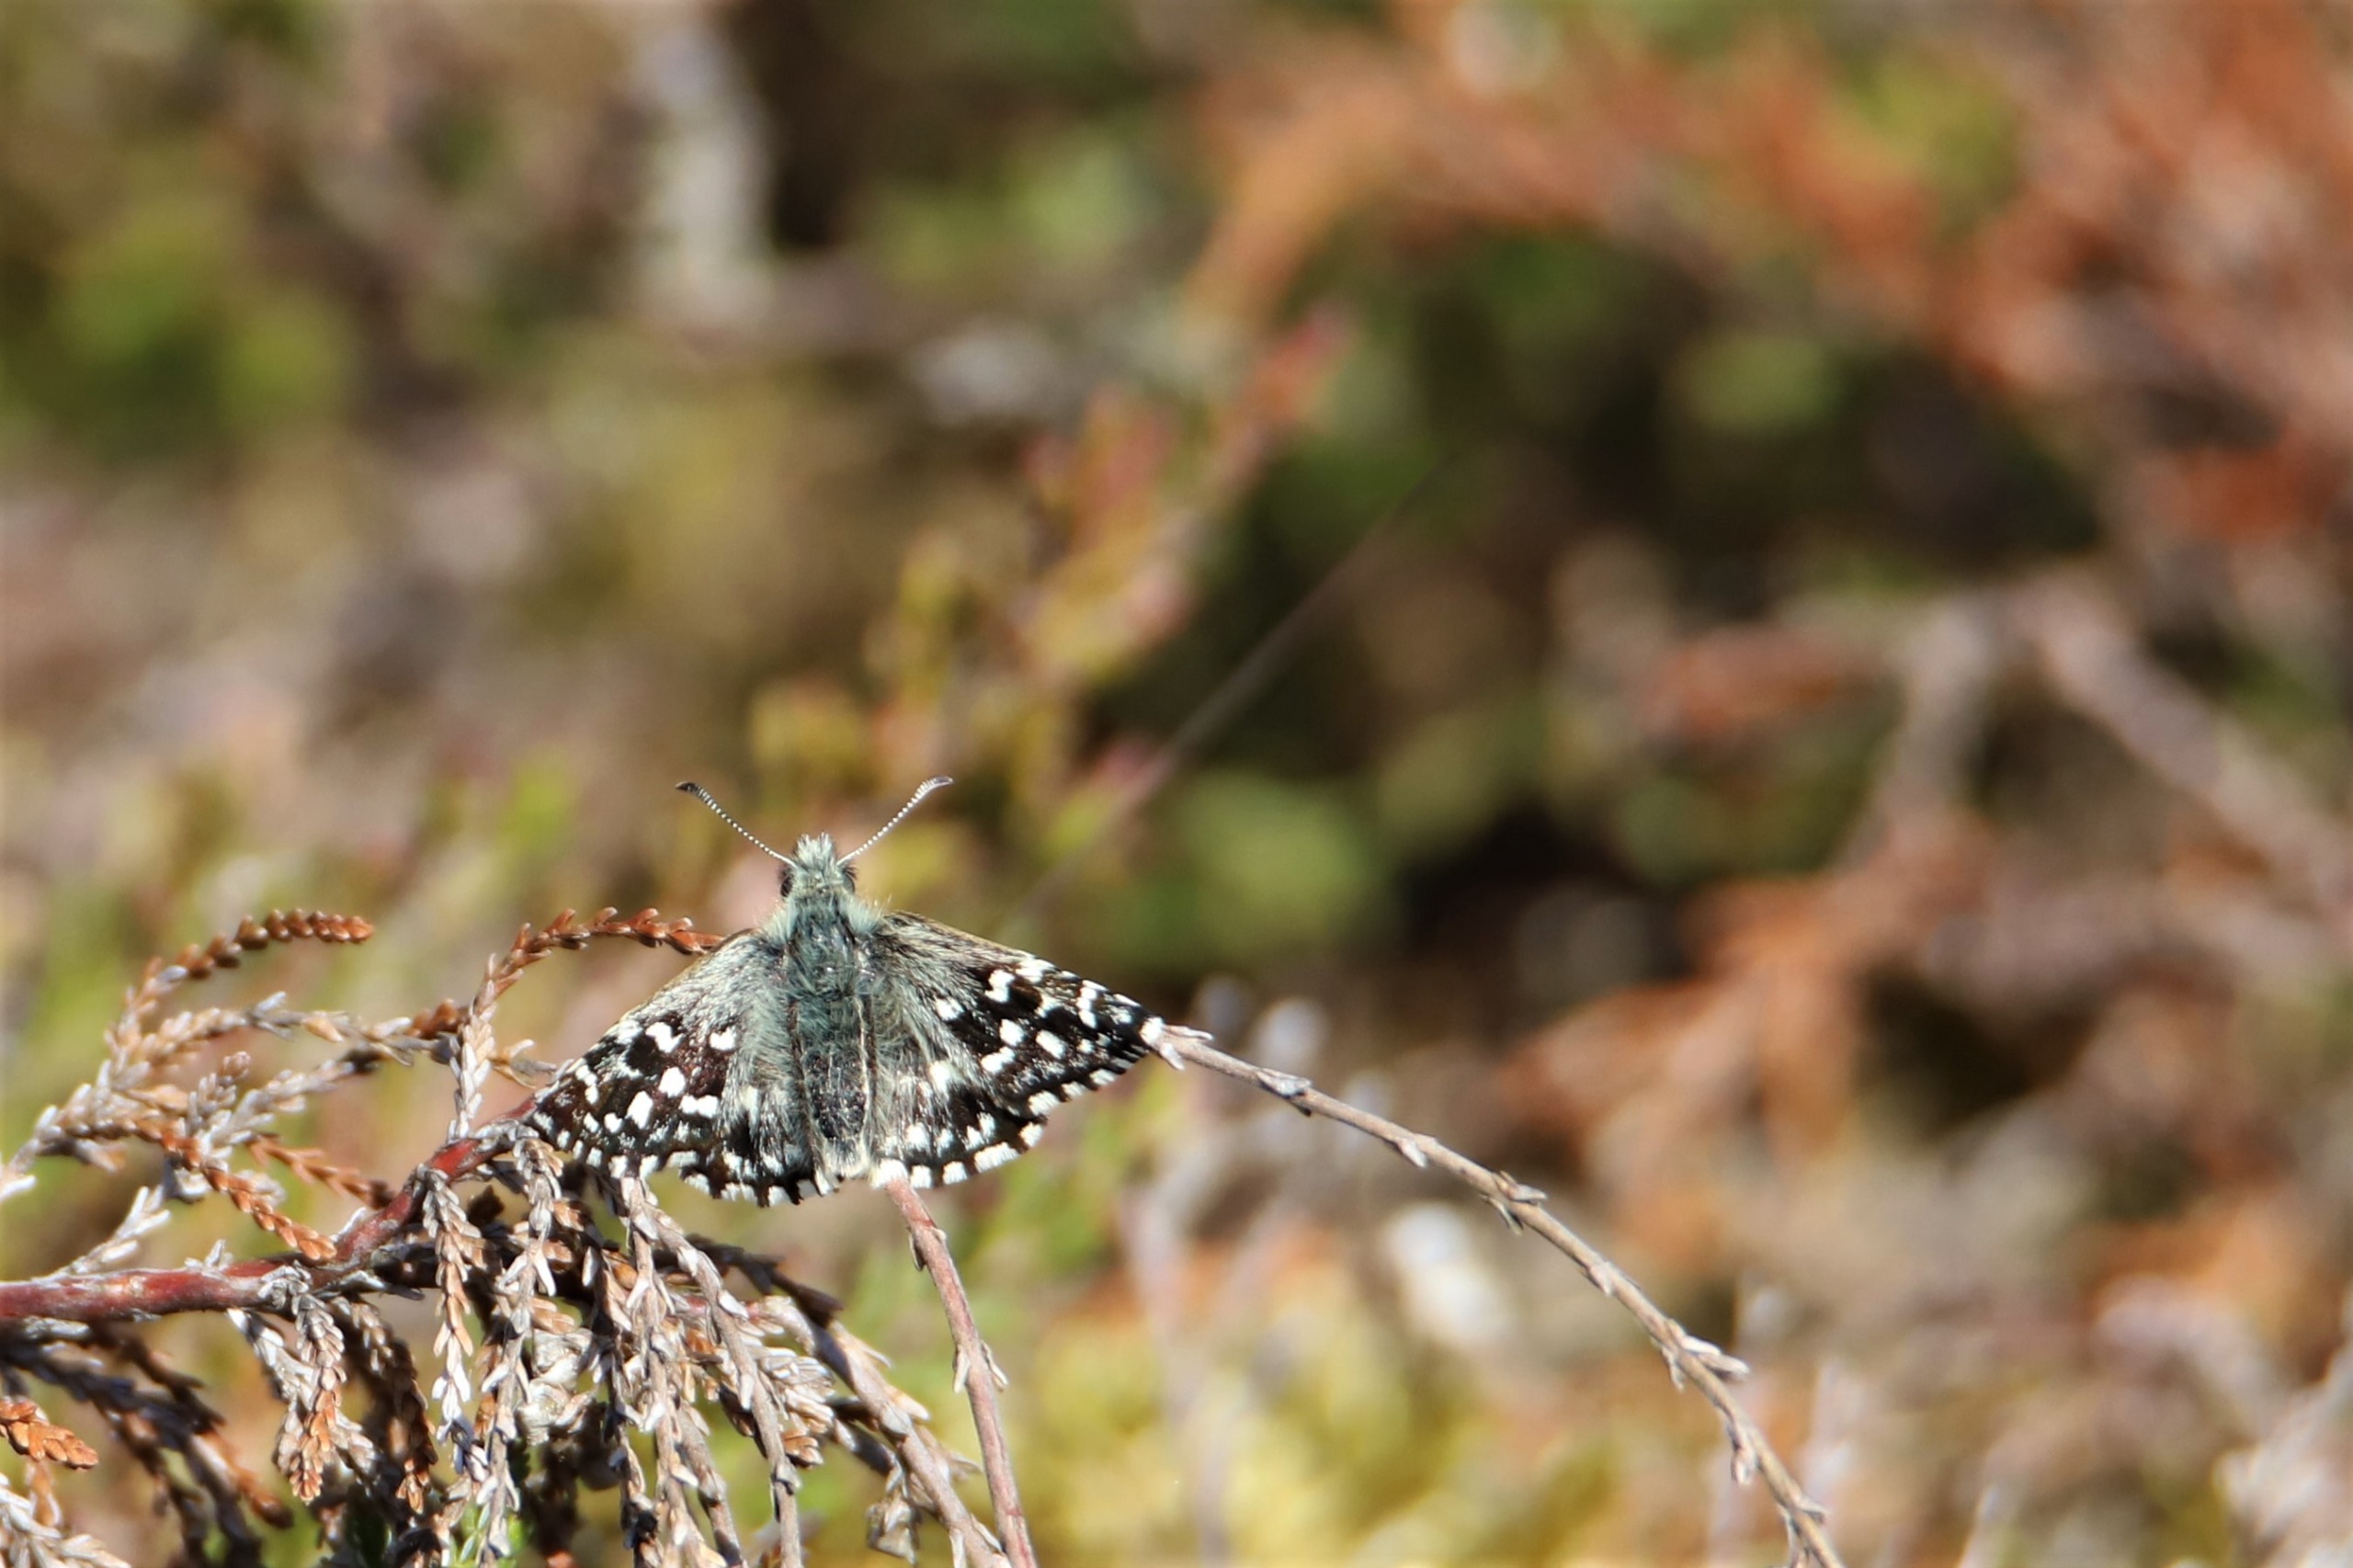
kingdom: Animalia
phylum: Arthropoda
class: Insecta
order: Lepidoptera
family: Hesperiidae
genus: Pyrgus
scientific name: Pyrgus malvae
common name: Spættet bredpande
